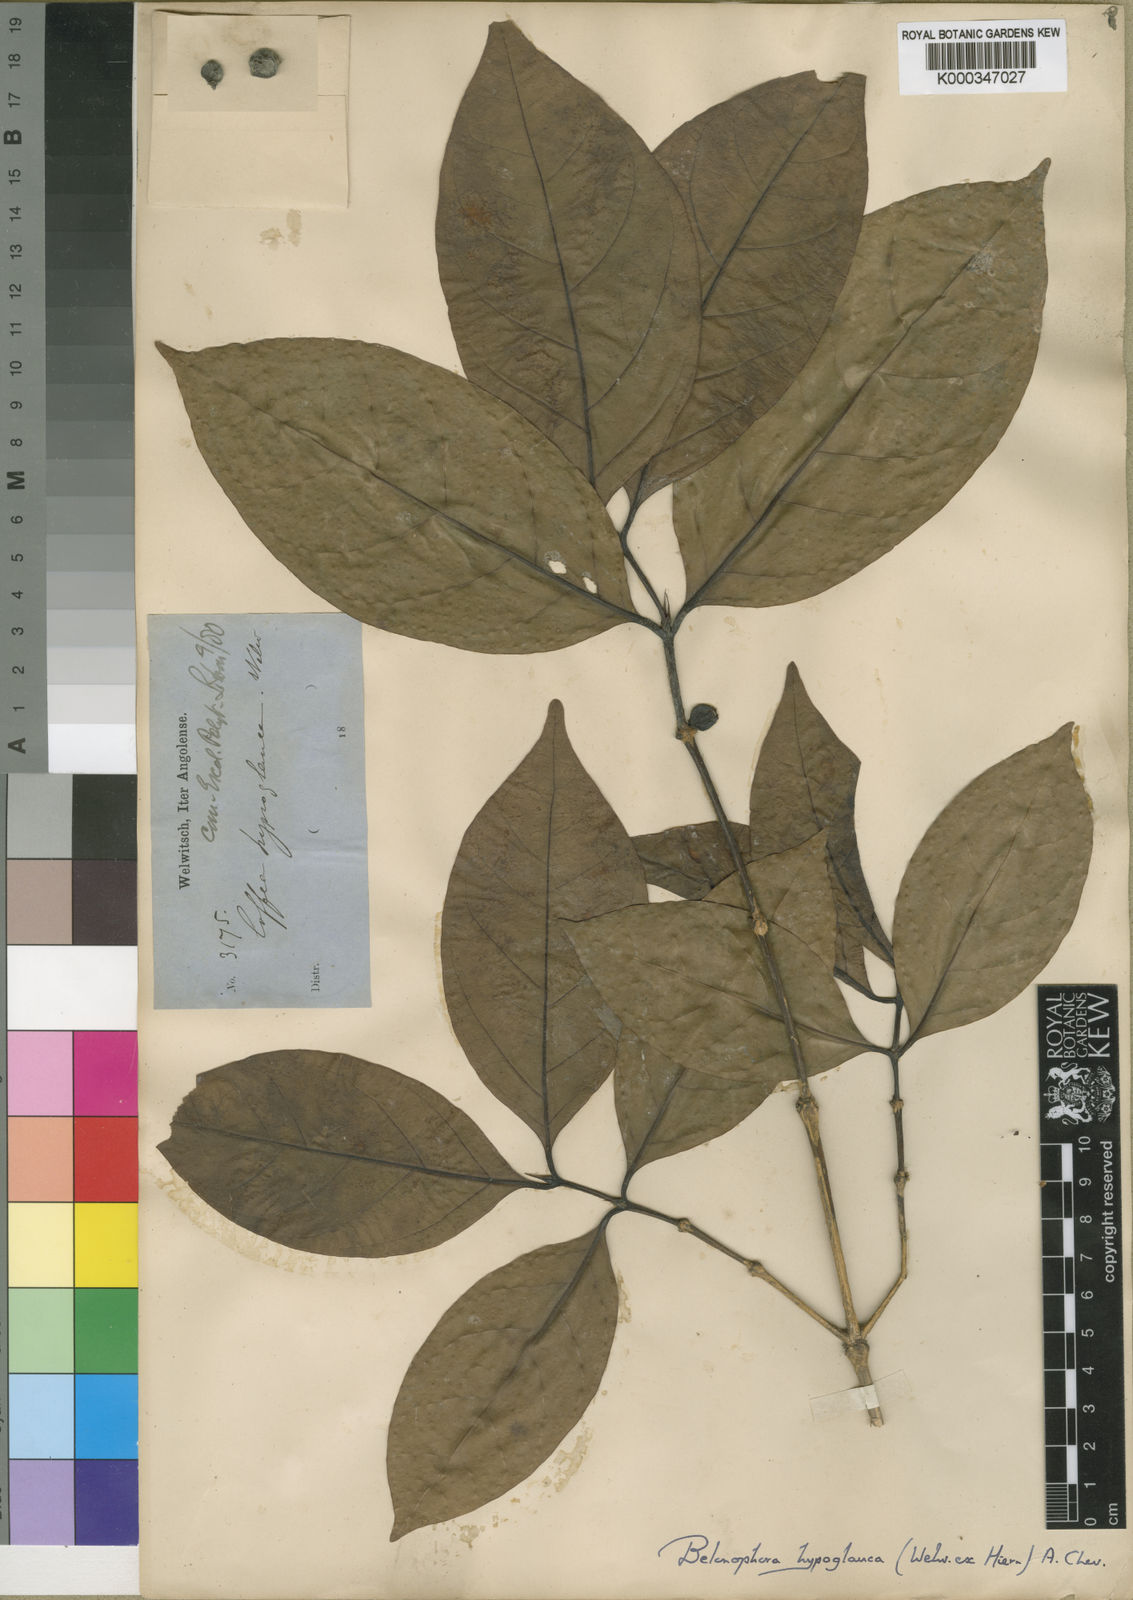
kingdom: Plantae
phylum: Tracheophyta
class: Magnoliopsida
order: Gentianales
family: Rubiaceae
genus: Belonophora
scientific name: Belonophora coffeoides
